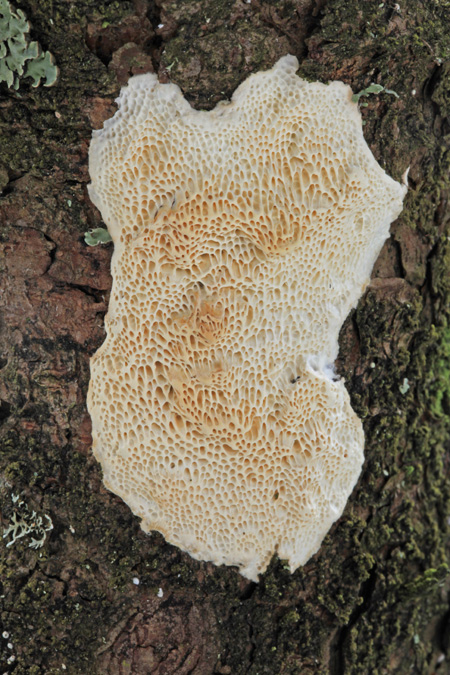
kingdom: Fungi
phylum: Basidiomycota
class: Agaricomycetes
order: Polyporales
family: Fomitopsidaceae
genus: Fomitopsis
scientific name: Fomitopsis
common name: fyrre-skiveporesvamp
